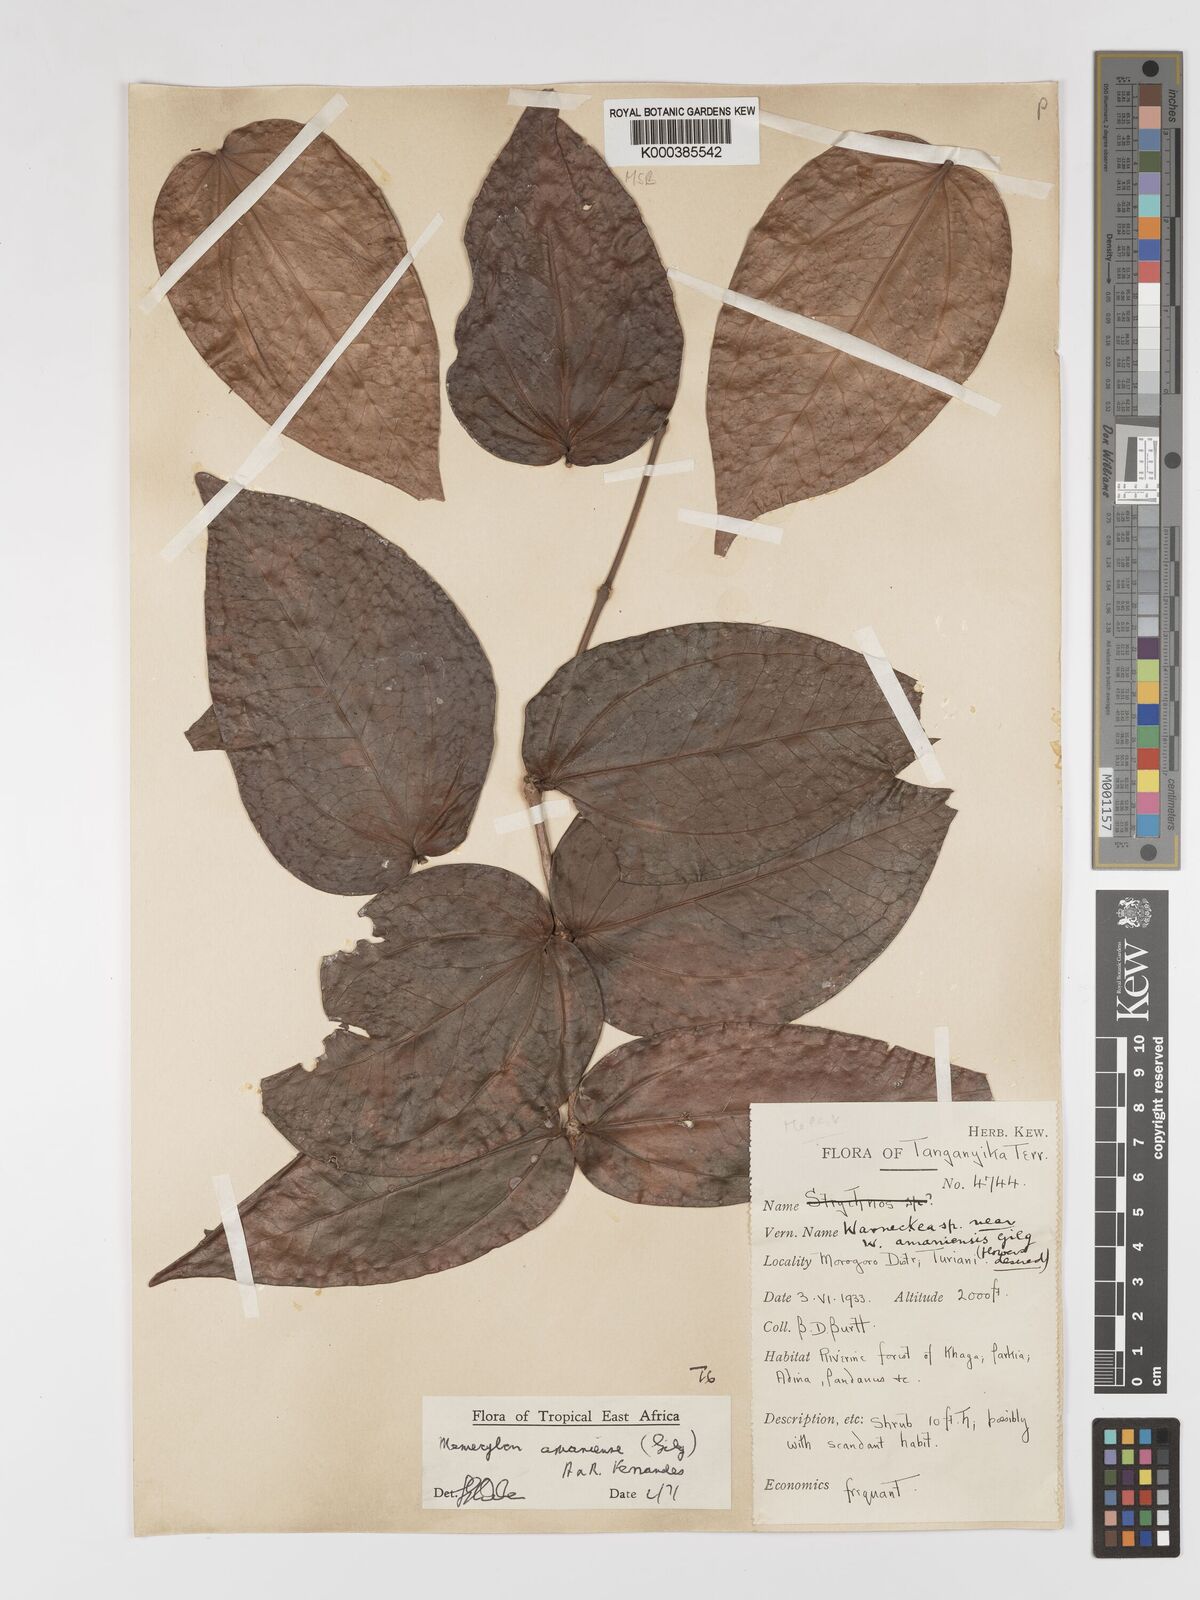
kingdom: Plantae
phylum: Tracheophyta
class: Magnoliopsida
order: Myrtales
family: Melastomataceae
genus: Warneckea
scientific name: Warneckea amaniensis
